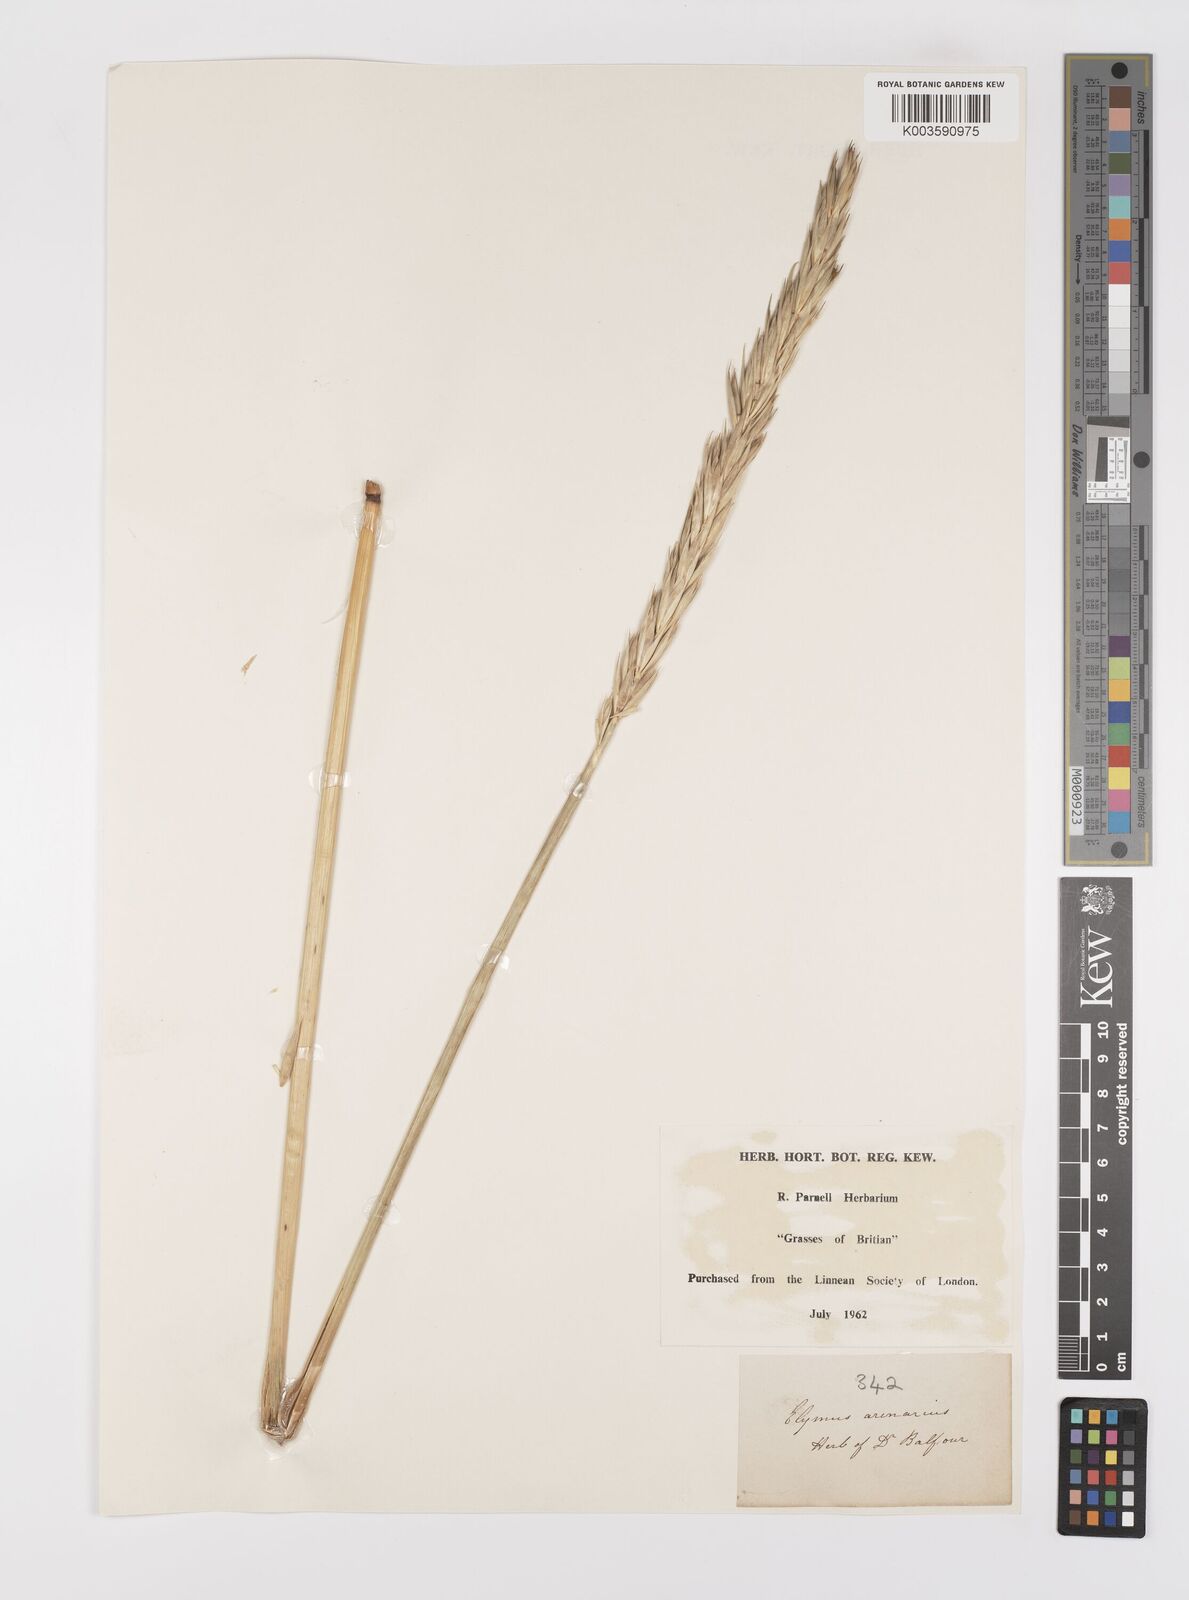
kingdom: Plantae
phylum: Tracheophyta
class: Liliopsida
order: Poales
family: Poaceae
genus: Leymus
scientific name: Leymus arenarius
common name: Lyme-grass
